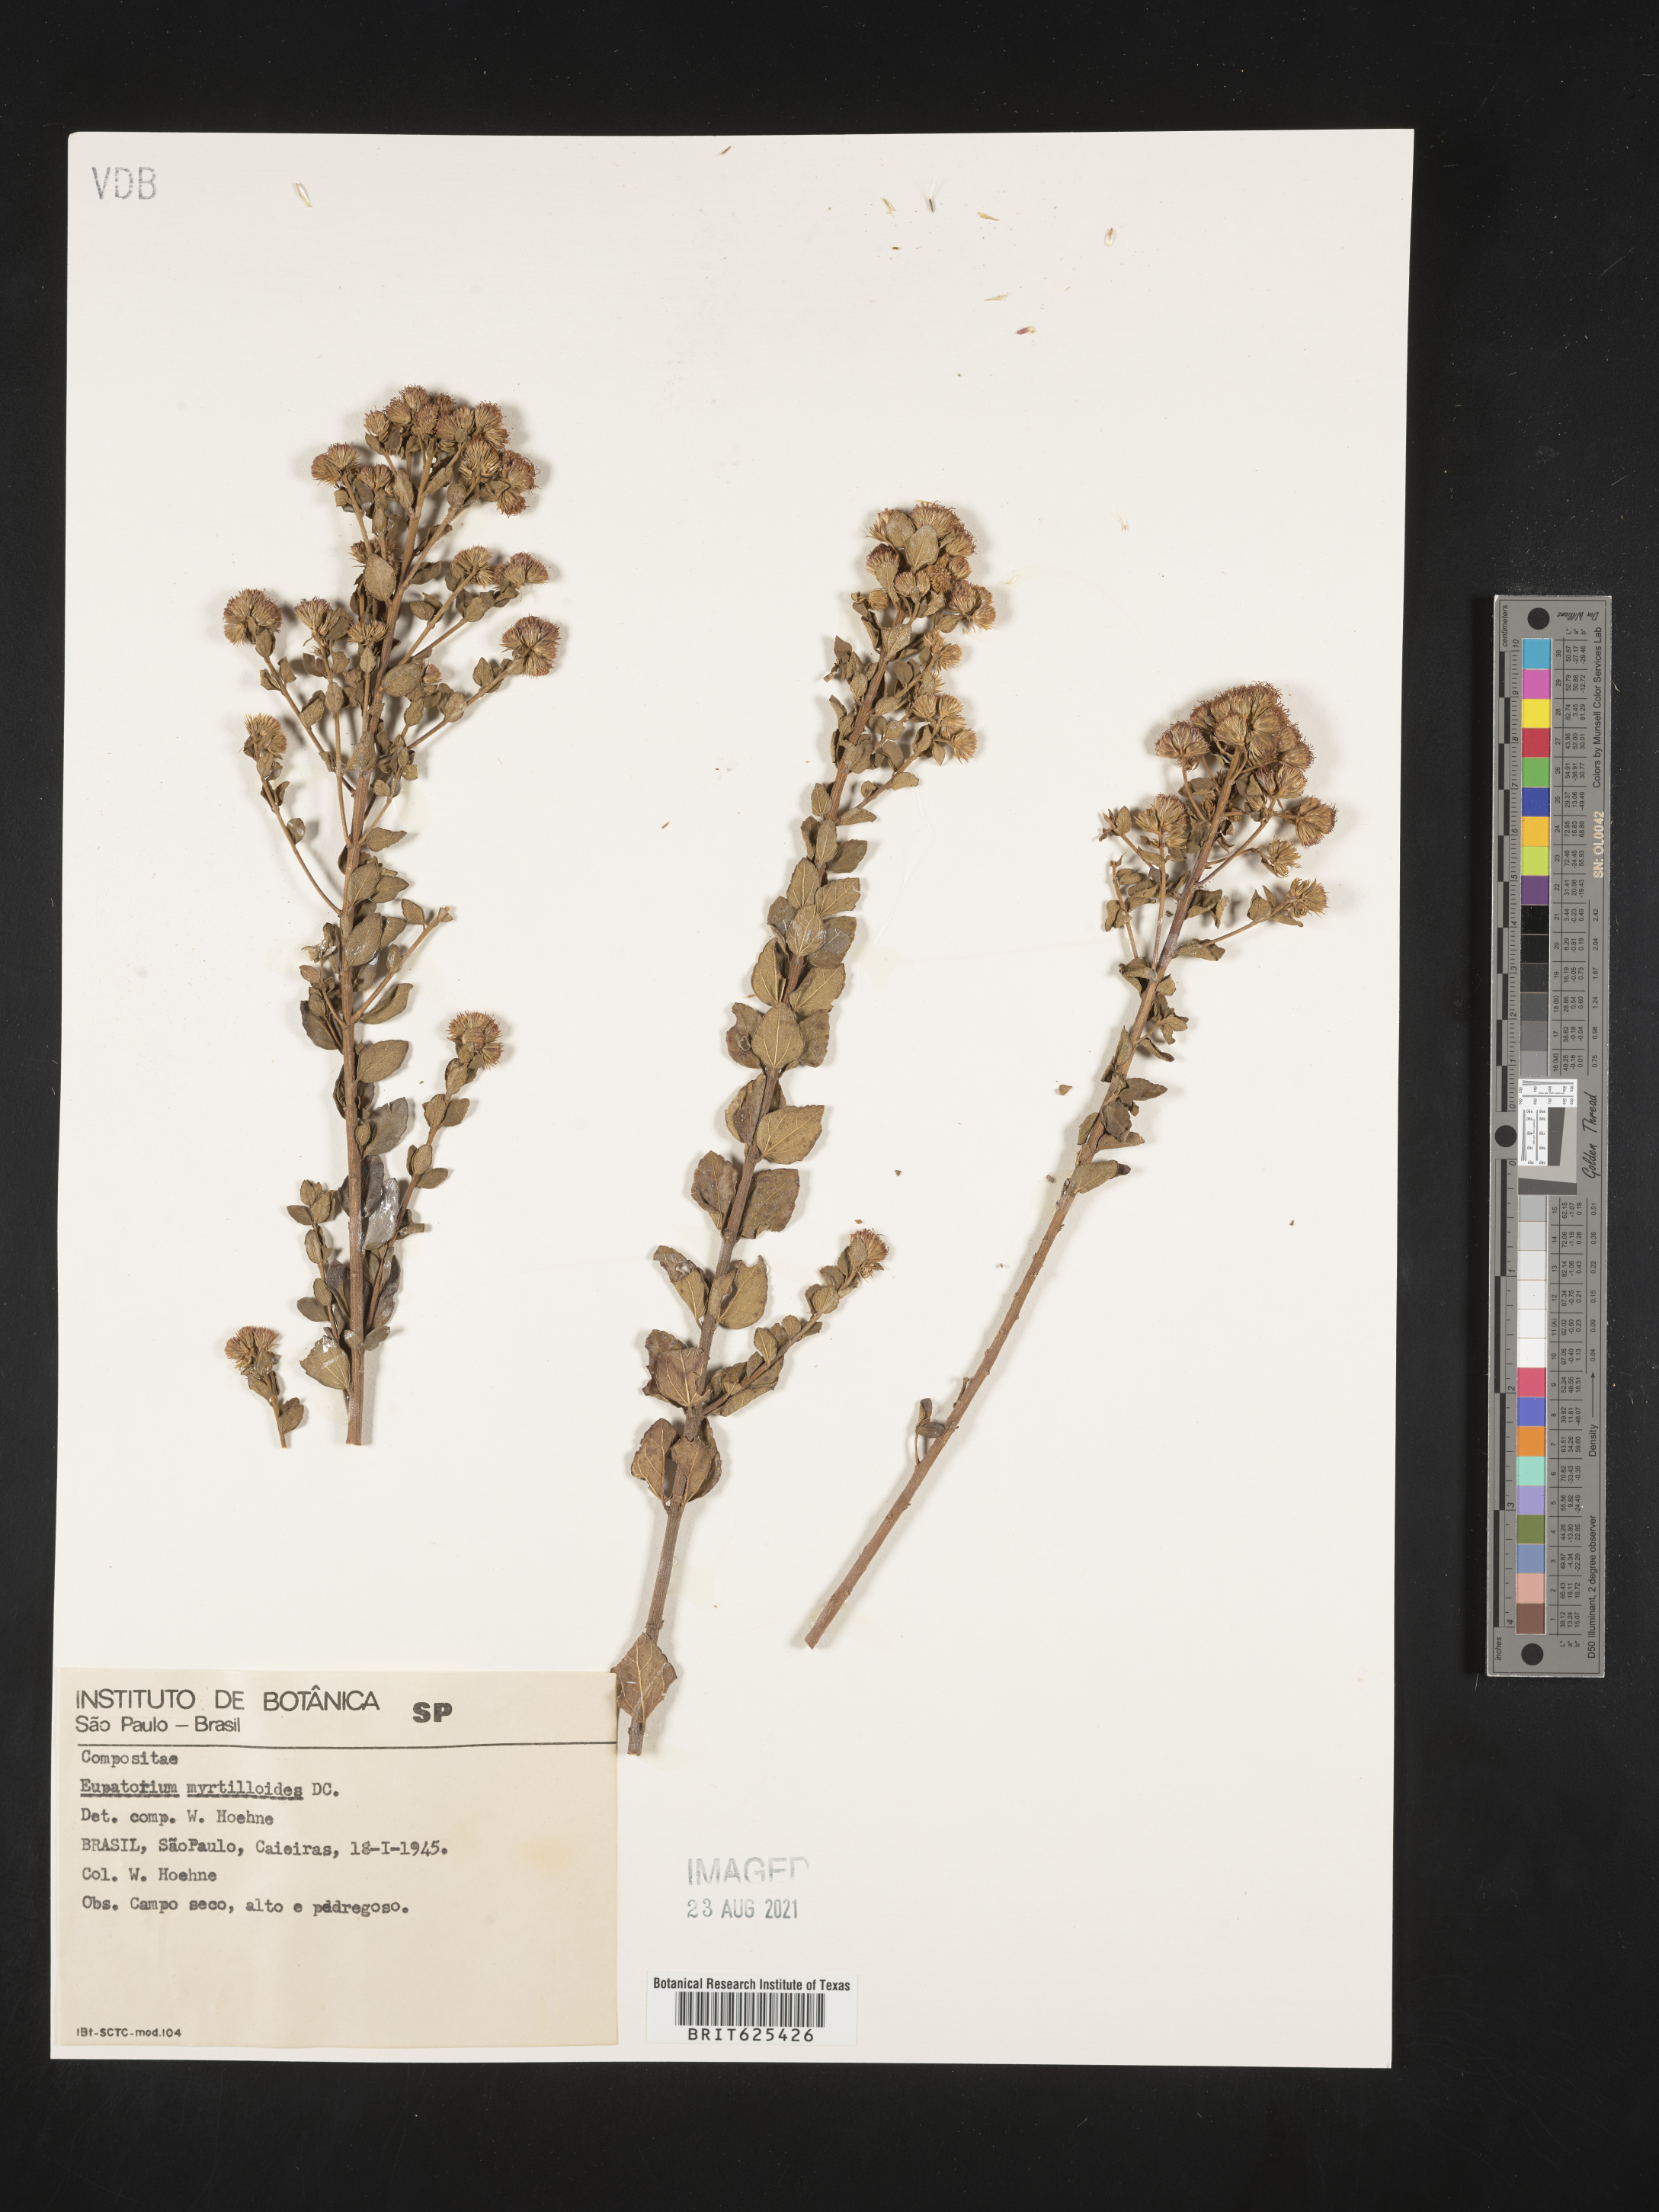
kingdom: Plantae
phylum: Tracheophyta
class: Magnoliopsida
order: Asterales
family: Asteraceae
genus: Koanophyllon
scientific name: Koanophyllon myrtilloides
